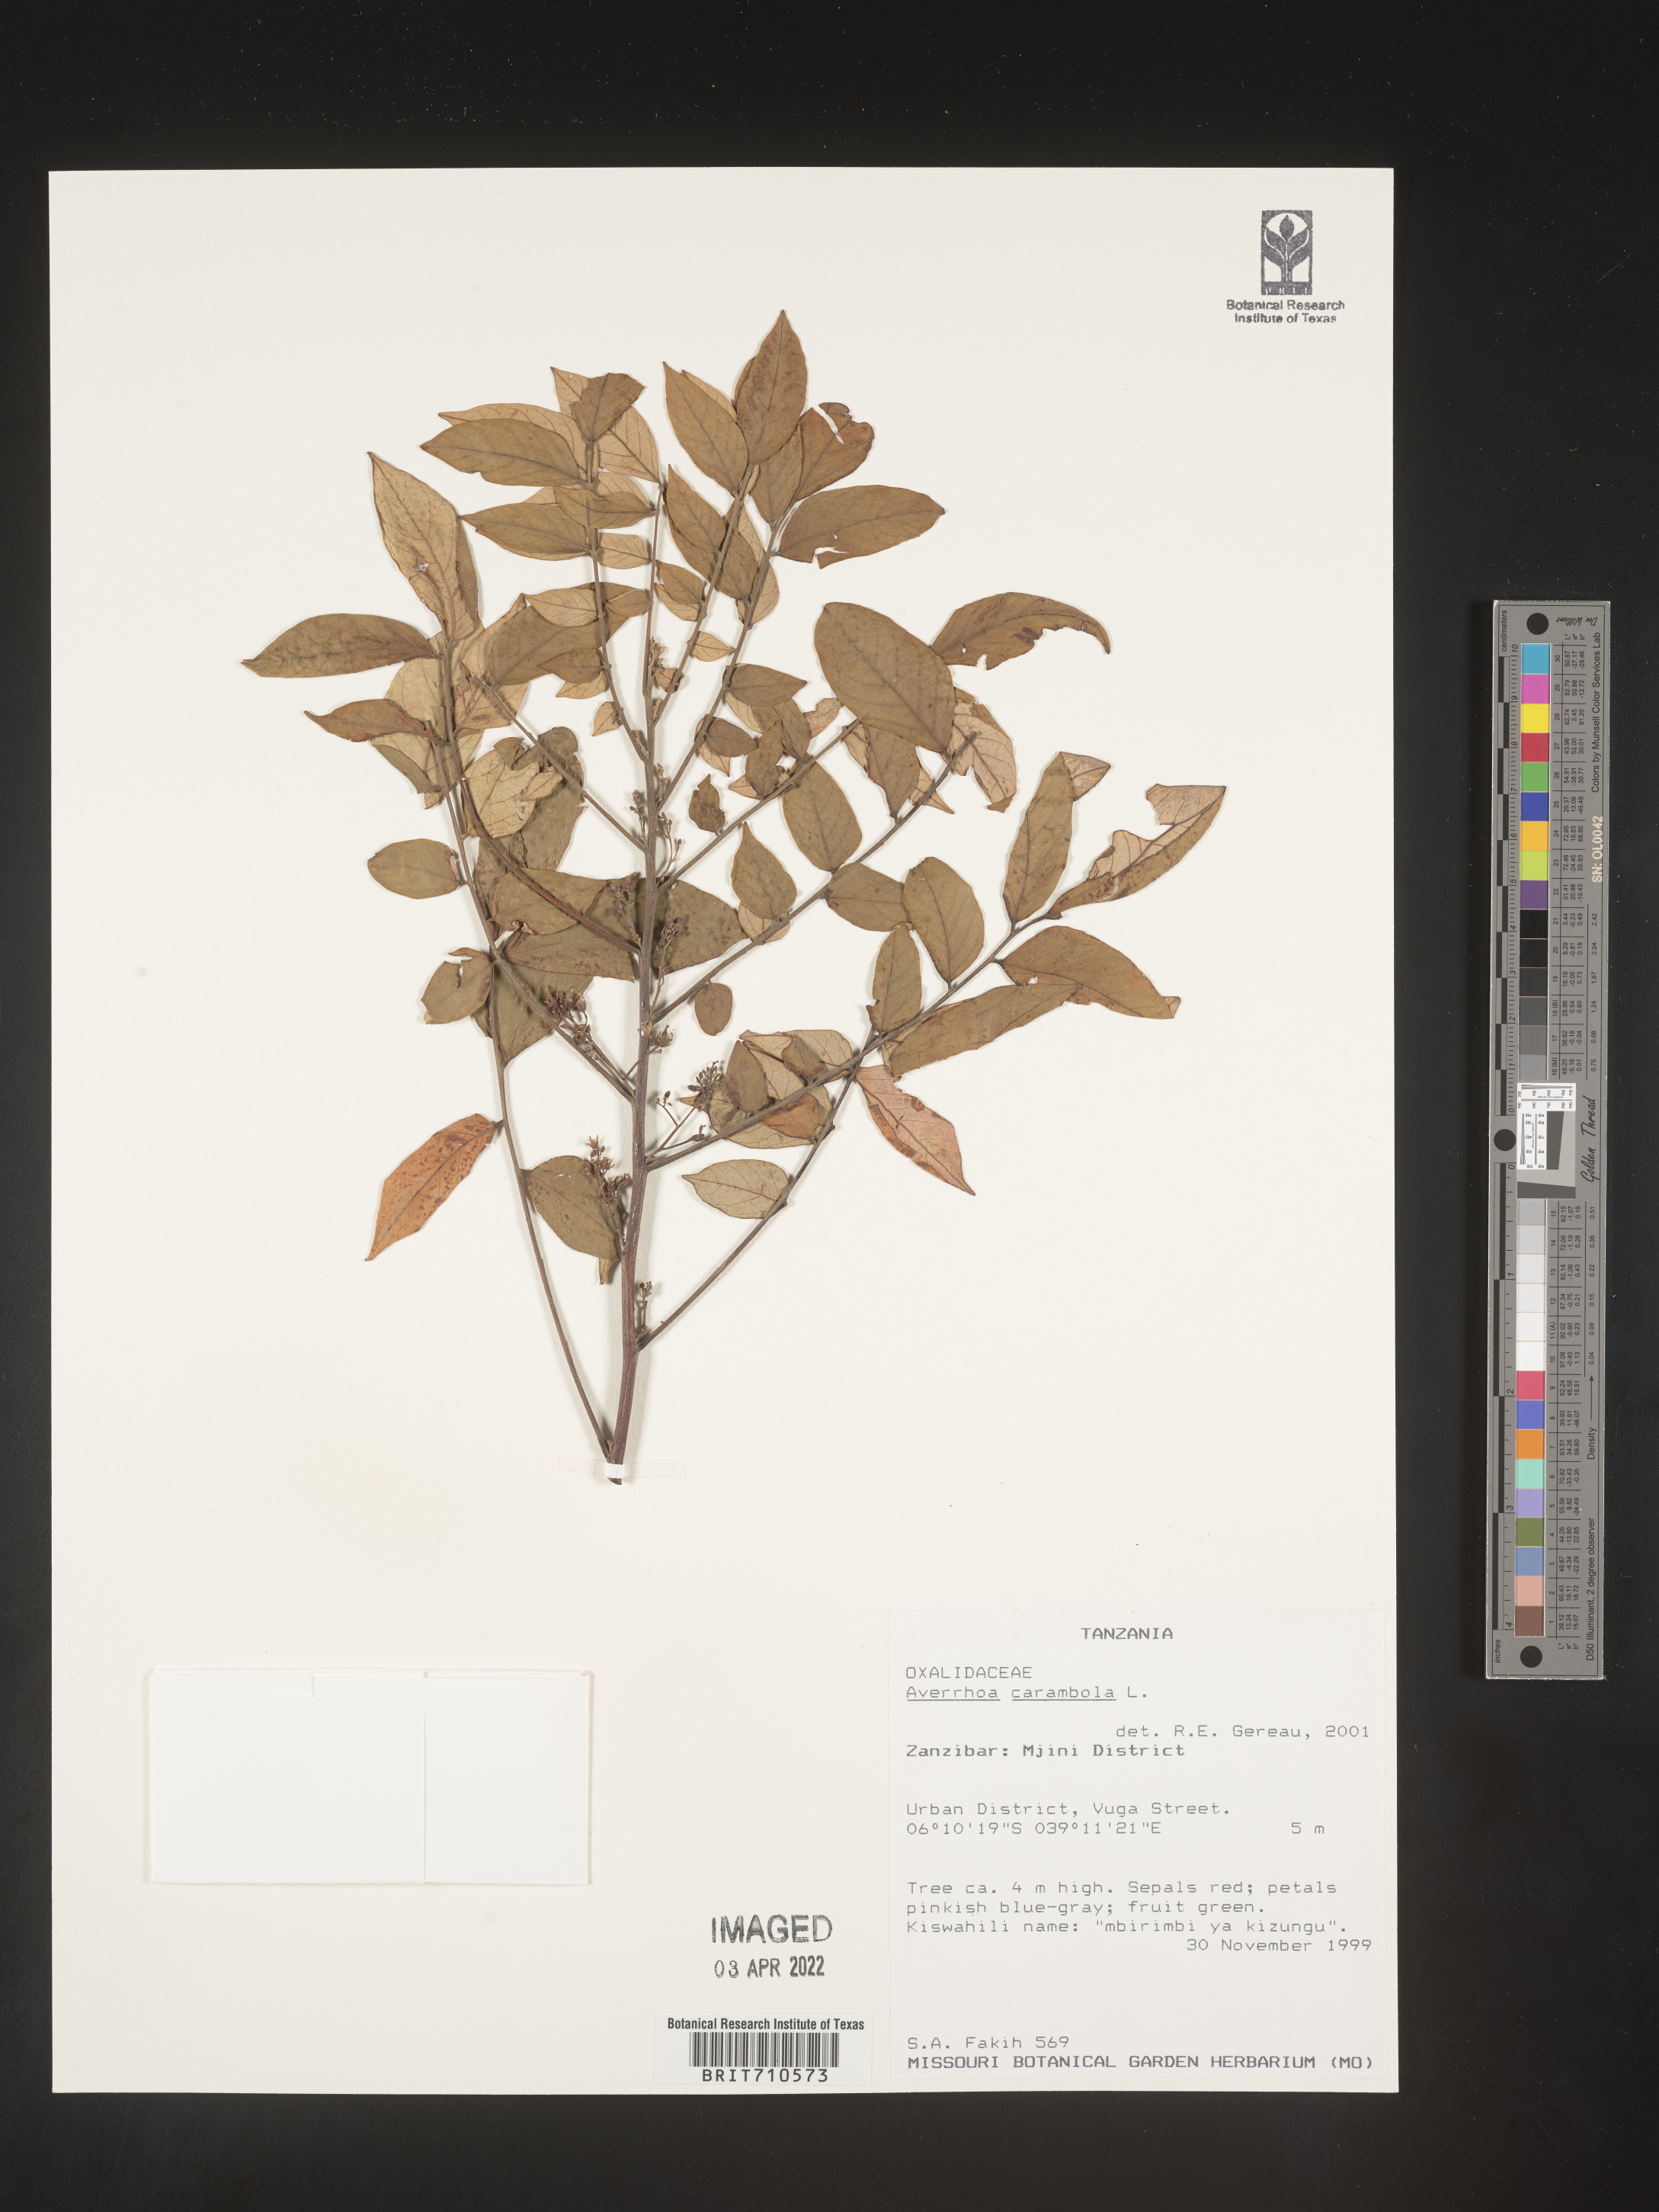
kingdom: Plantae
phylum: Tracheophyta
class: Magnoliopsida
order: Oxalidales
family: Oxalidaceae
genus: Averrhoa
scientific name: Averrhoa
